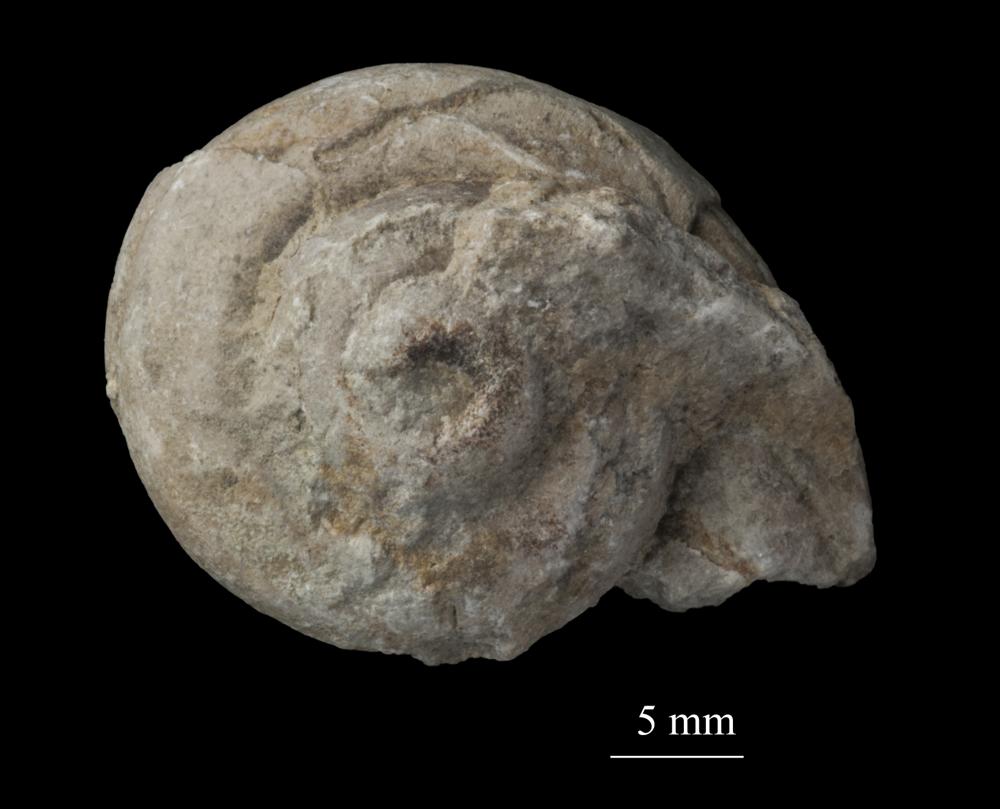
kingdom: Animalia
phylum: Mollusca
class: Gastropoda
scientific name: Gastropoda
